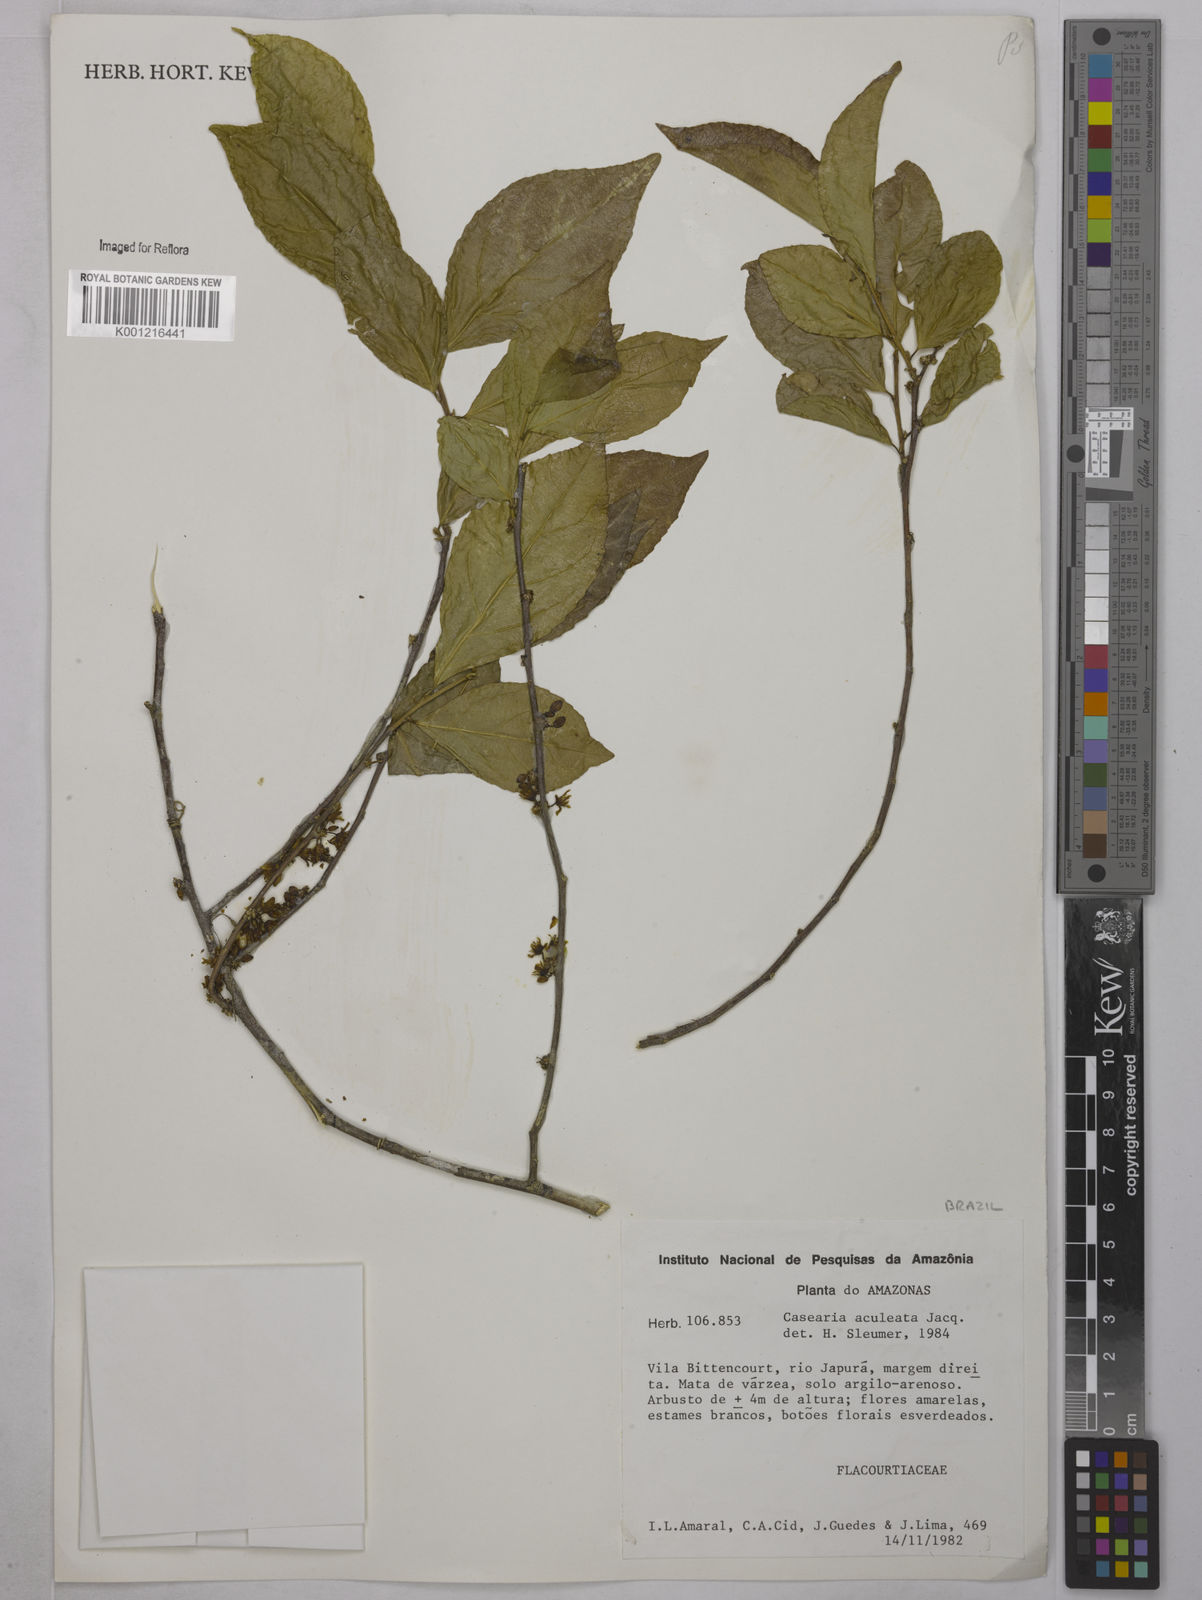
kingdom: Plantae
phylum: Tracheophyta
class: Magnoliopsida
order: Malpighiales
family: Salicaceae
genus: Casearia
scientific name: Casearia aculeata
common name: Cockspur
